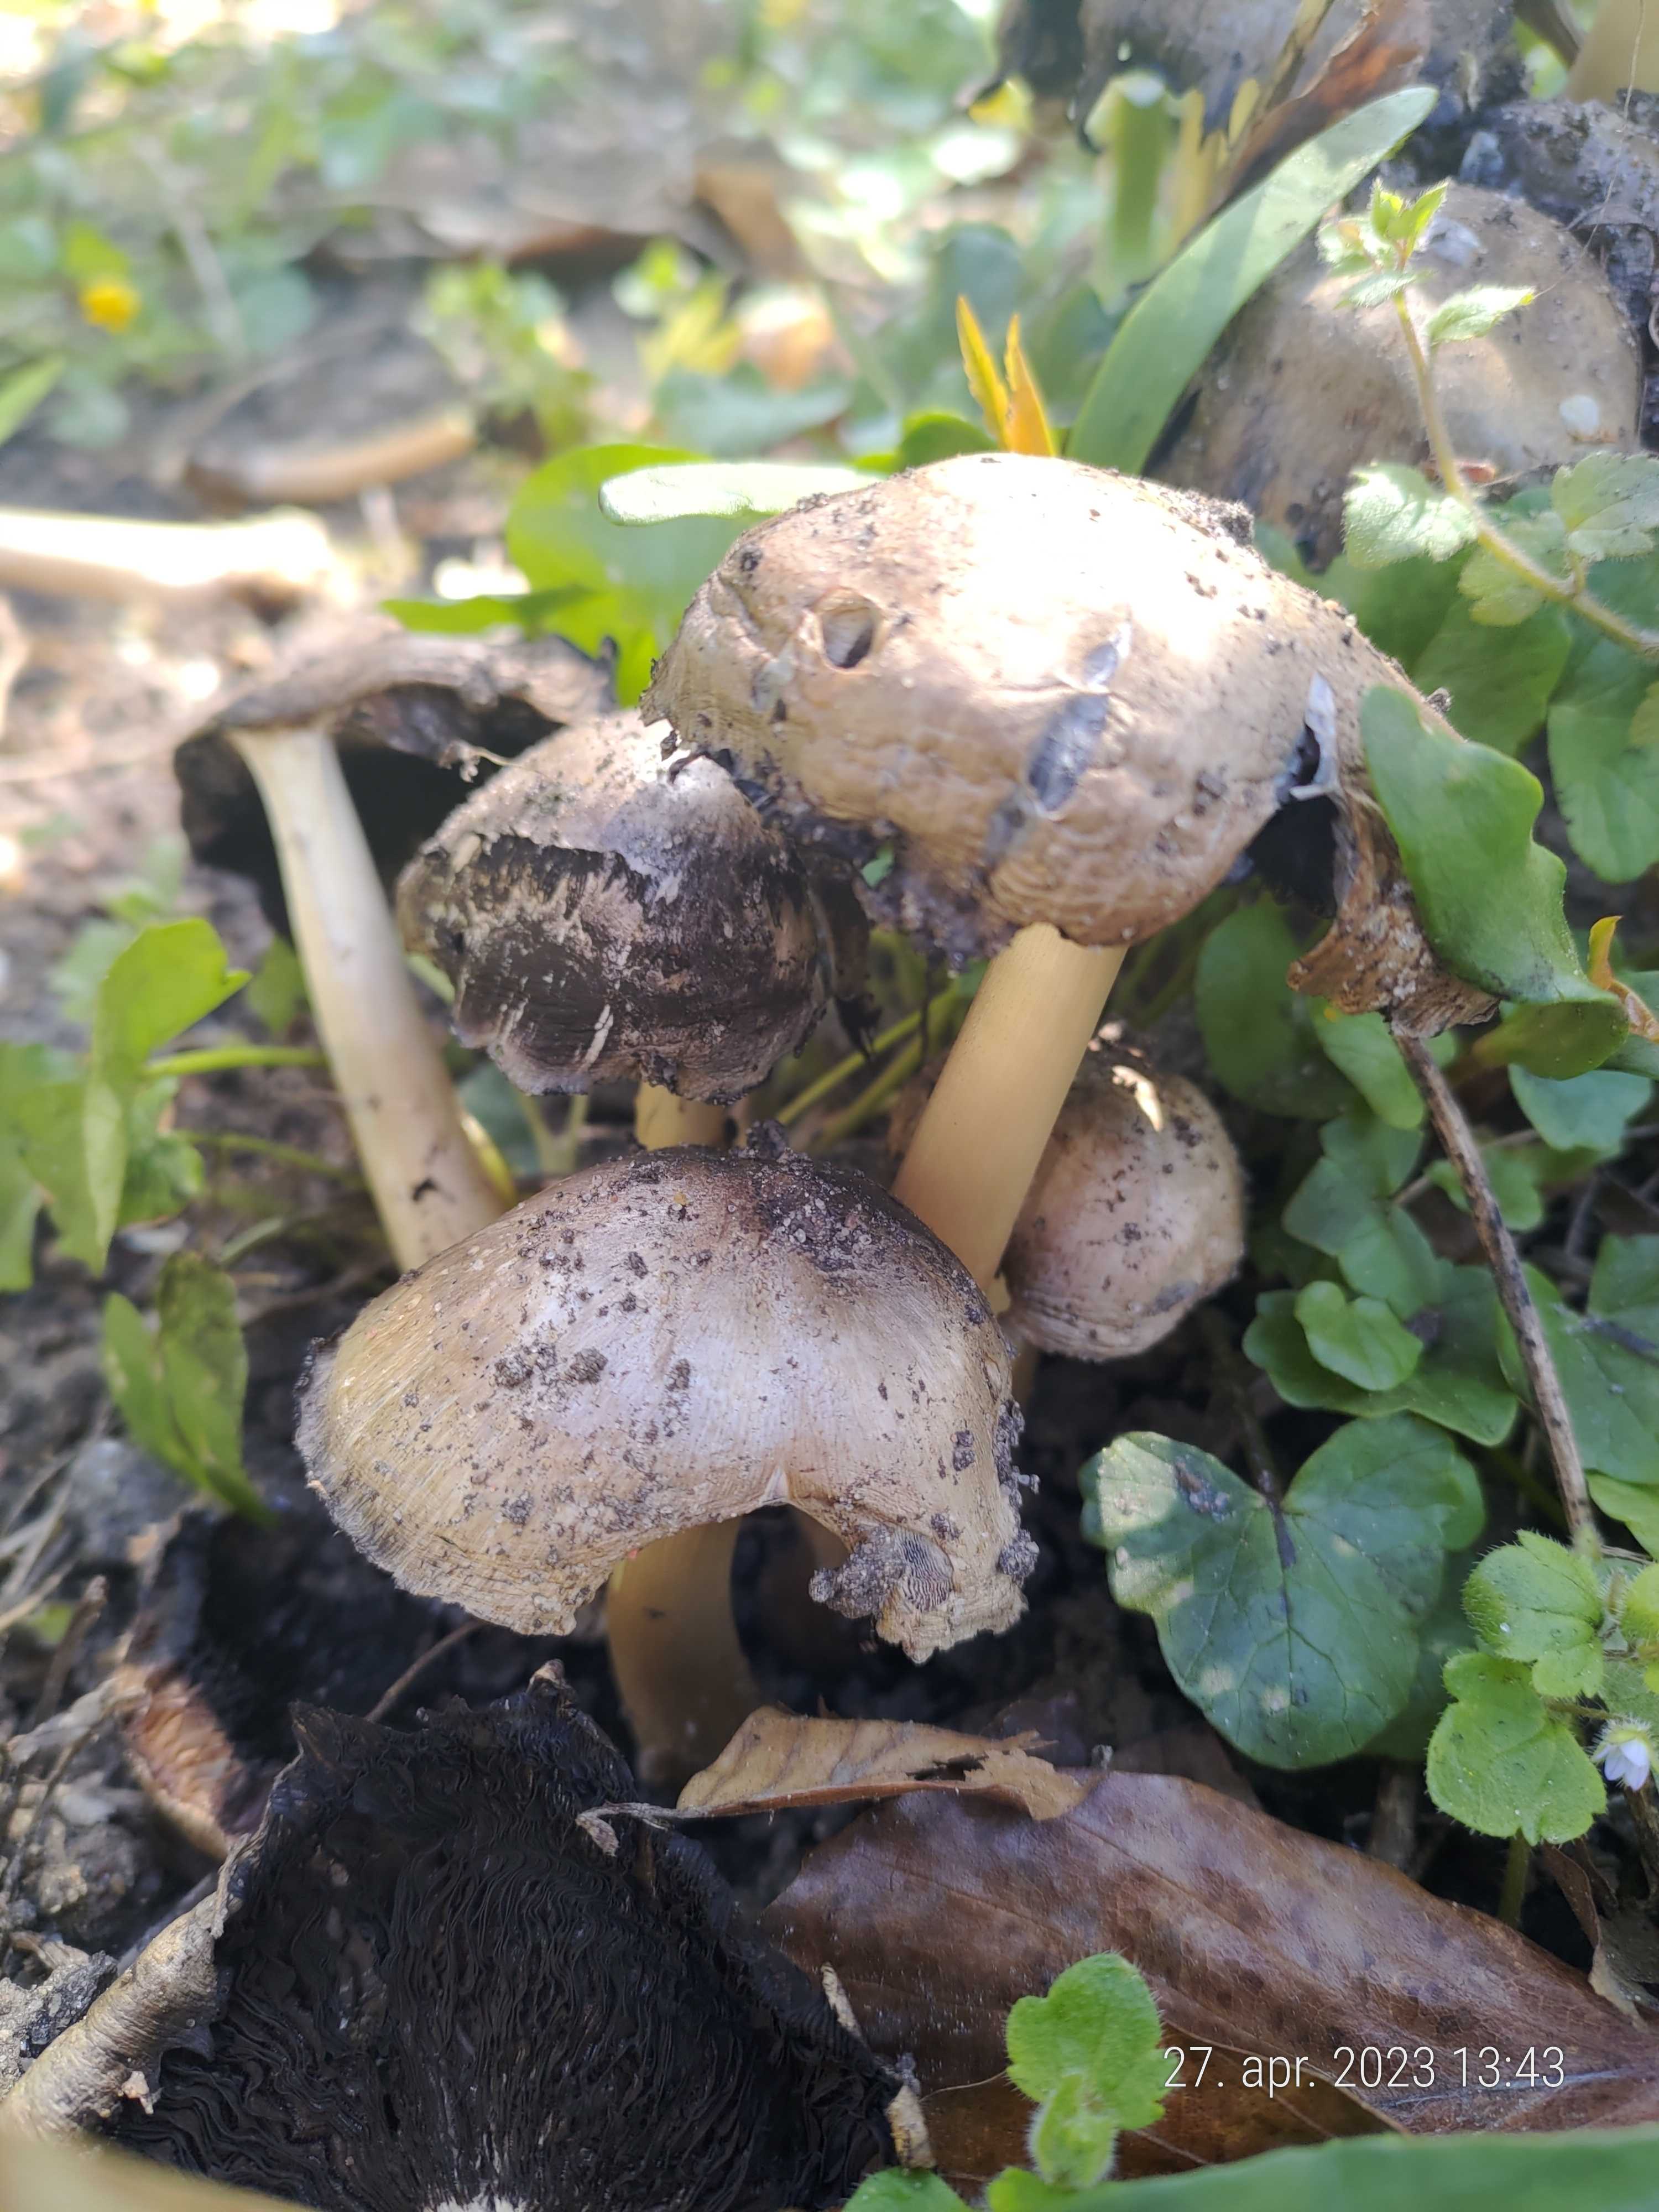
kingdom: Fungi
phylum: Basidiomycota
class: Agaricomycetes
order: Agaricales
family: Psathyrellaceae
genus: Coprinopsis
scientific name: Coprinopsis
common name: blækhat
